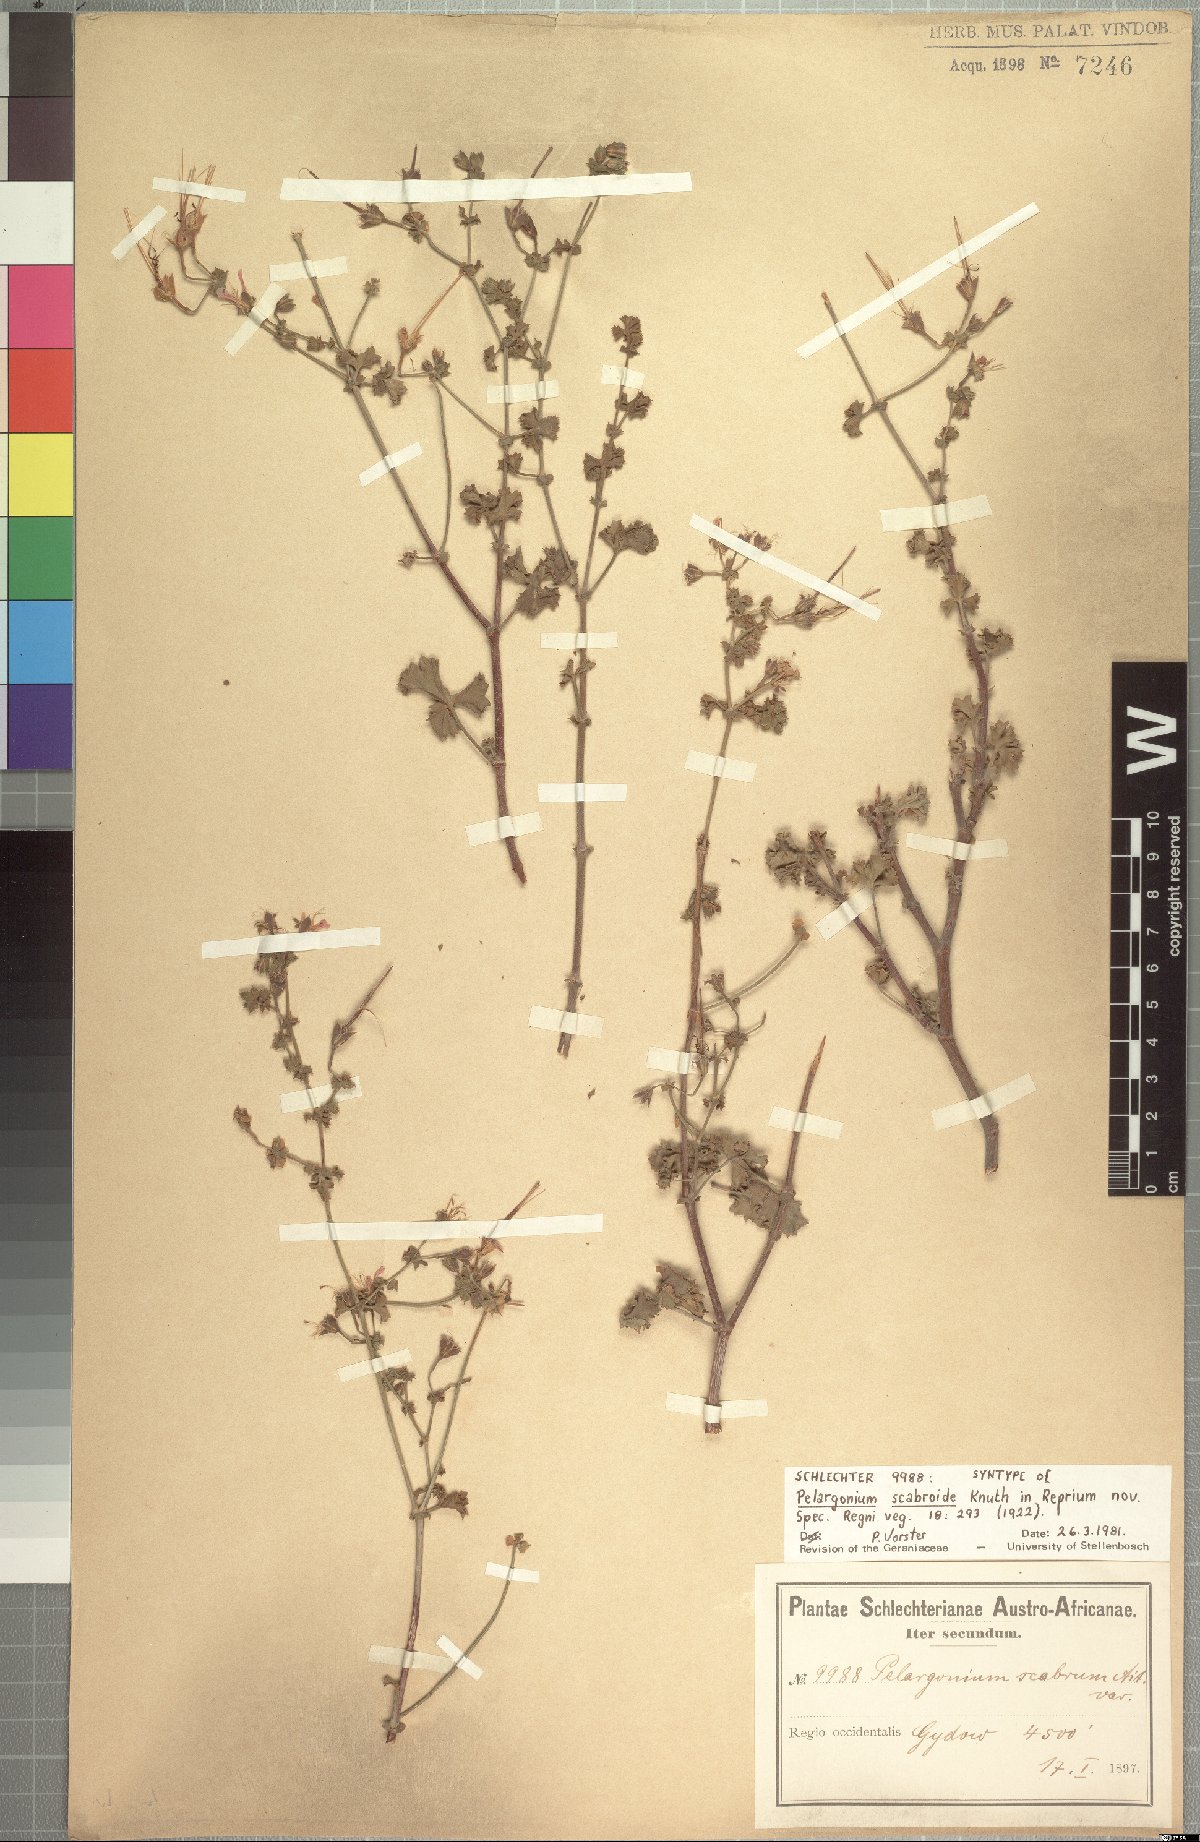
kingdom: Plantae
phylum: Tracheophyta
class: Magnoliopsida
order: Geraniales
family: Geraniaceae
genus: Pelargonium
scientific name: Pelargonium scabroide
